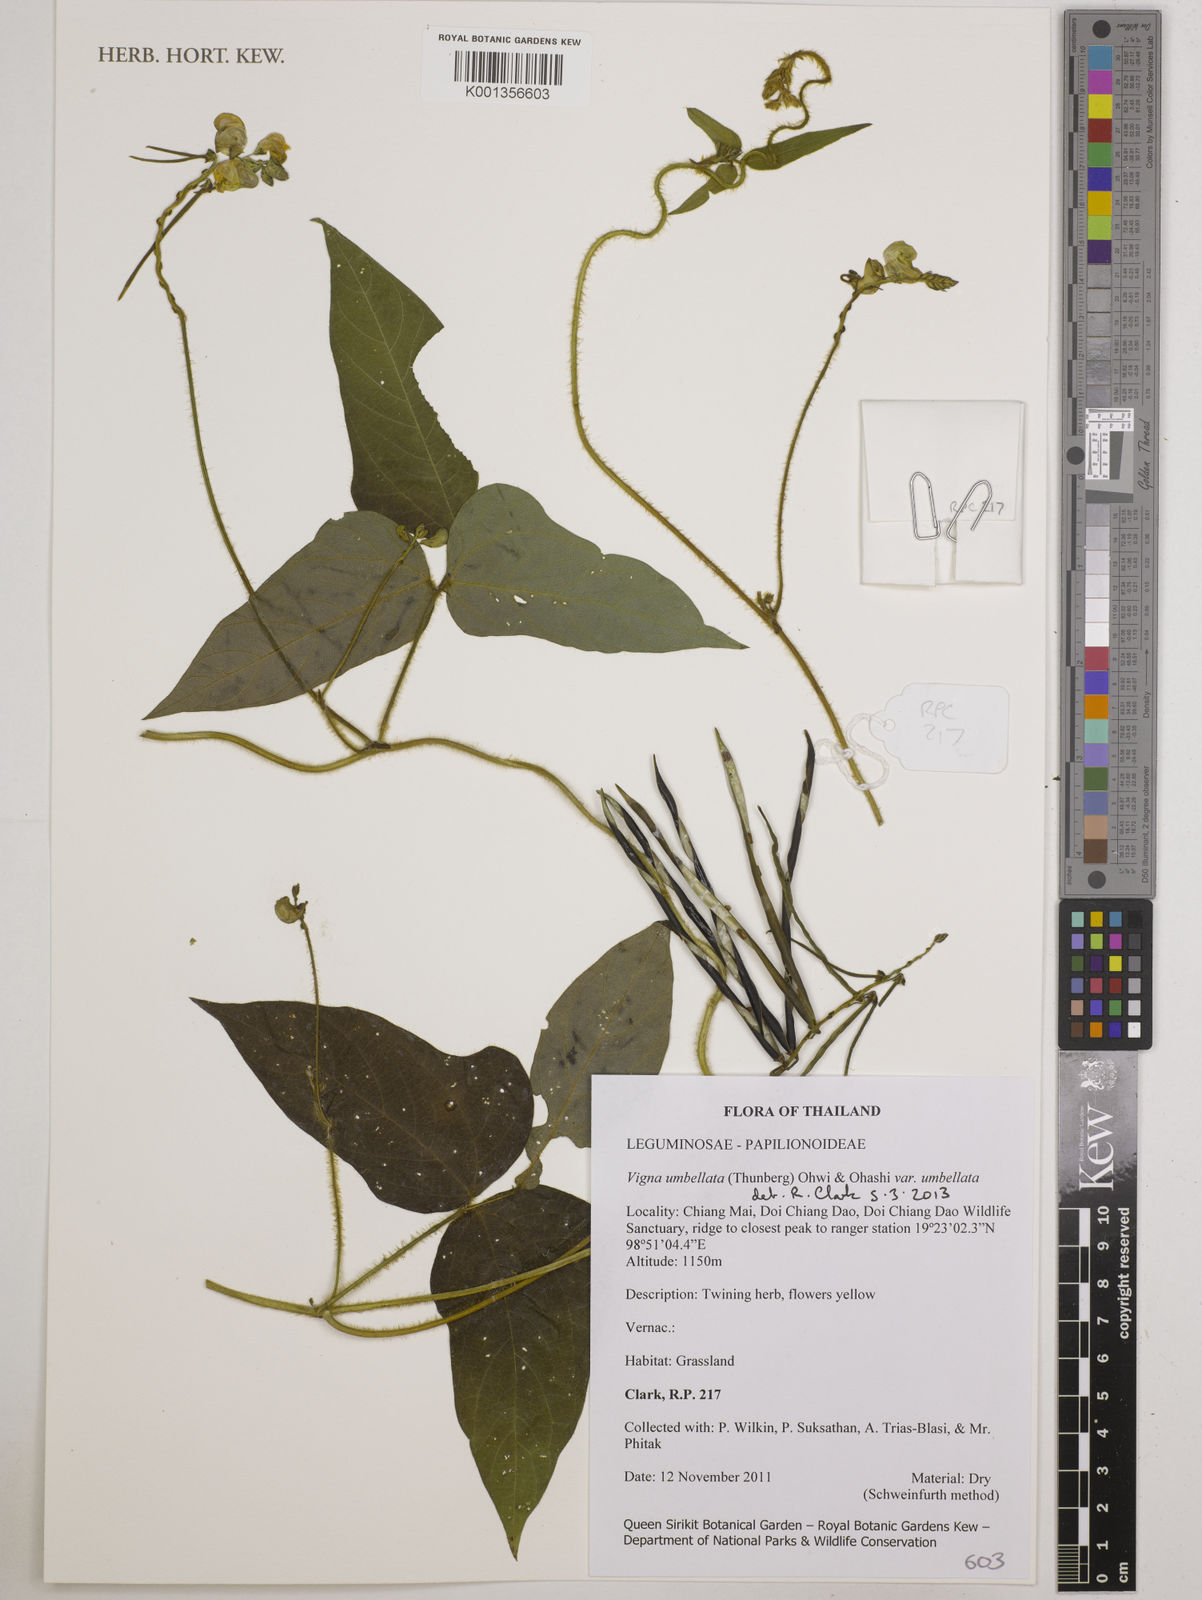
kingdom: Plantae
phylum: Tracheophyta
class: Magnoliopsida
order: Fabales
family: Fabaceae
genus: Vigna
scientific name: Vigna umbellata
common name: Oriental-bean
